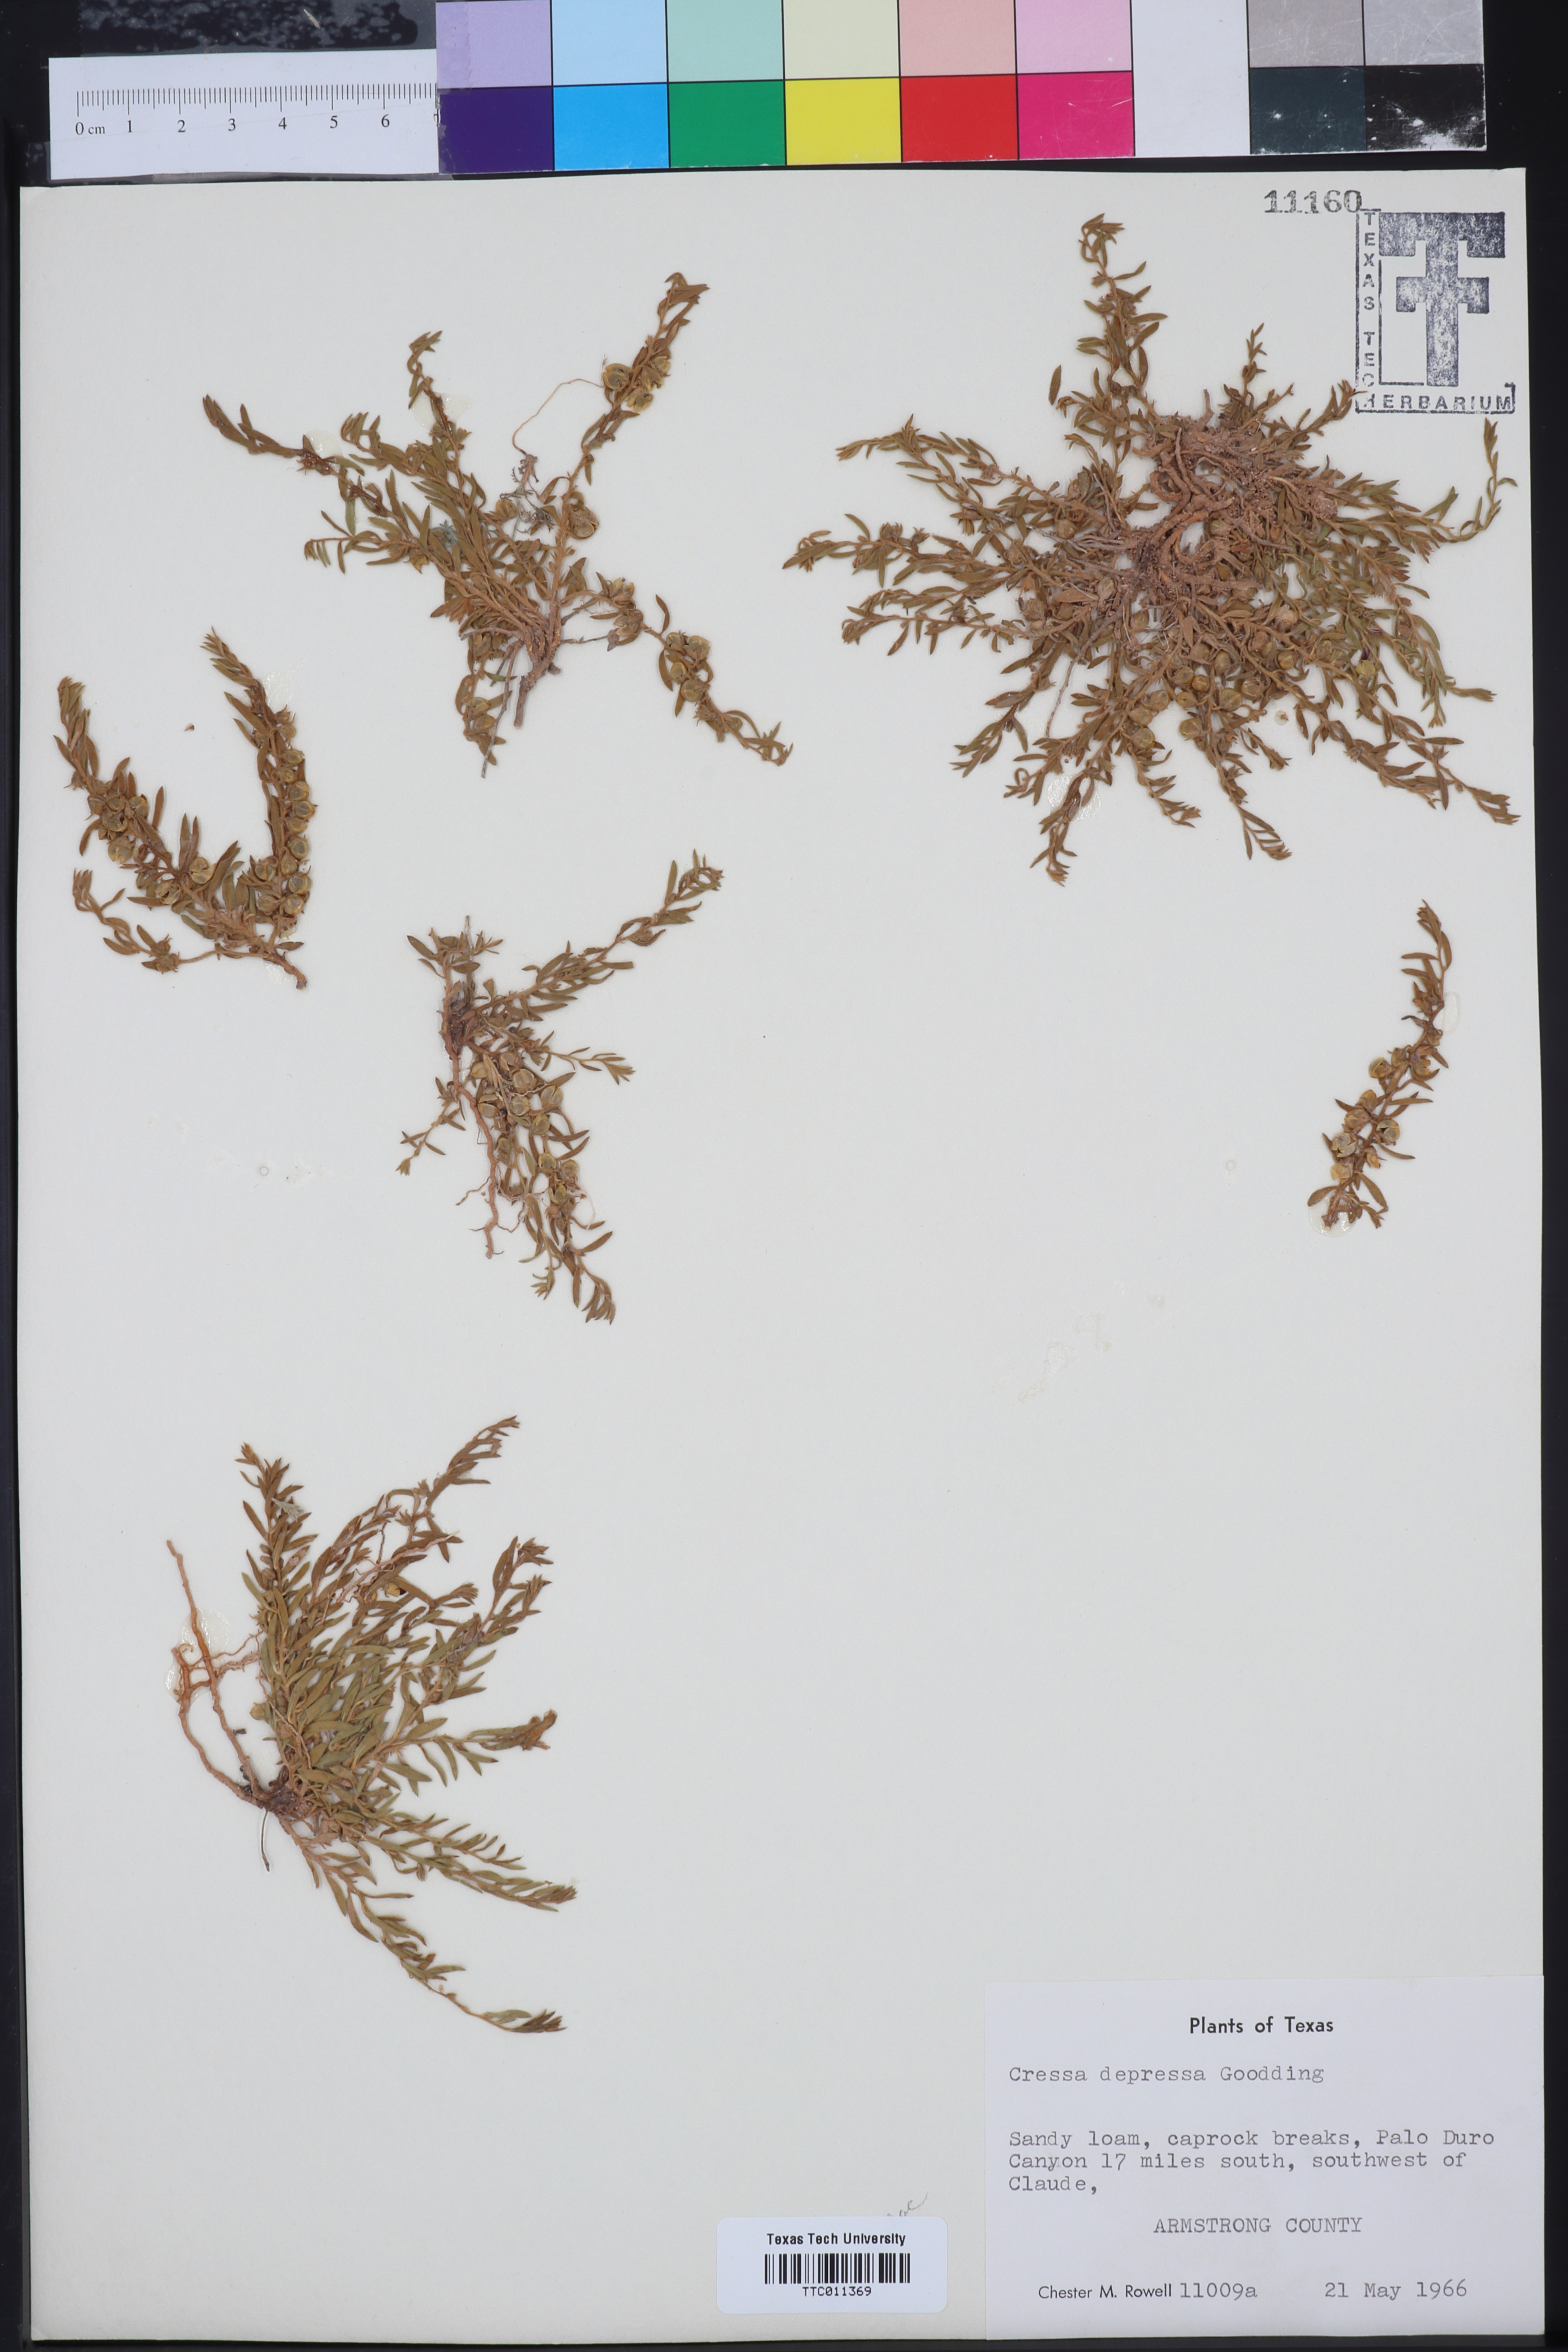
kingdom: Plantae
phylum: Tracheophyta
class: Magnoliopsida
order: Solanales
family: Convolvulaceae
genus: Cressa
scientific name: Cressa truxillensis
